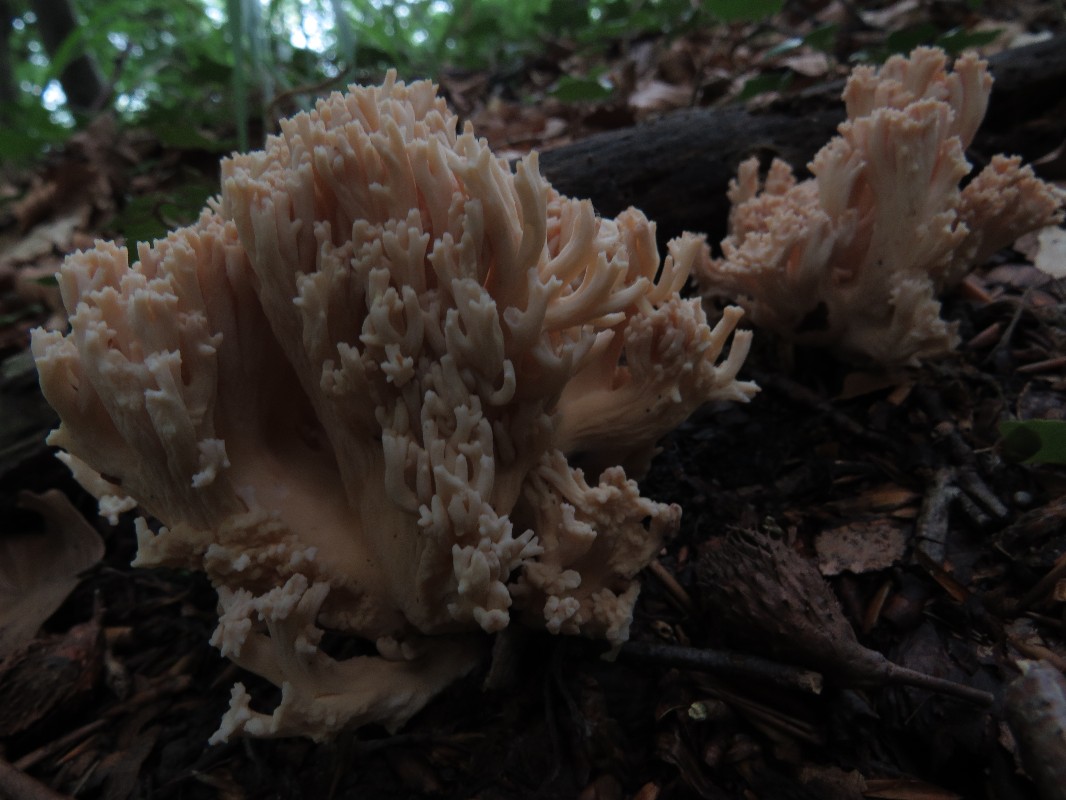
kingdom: Fungi
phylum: Basidiomycota
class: Agaricomycetes
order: Gomphales
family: Gomphaceae
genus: Ramaria
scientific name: Ramaria
